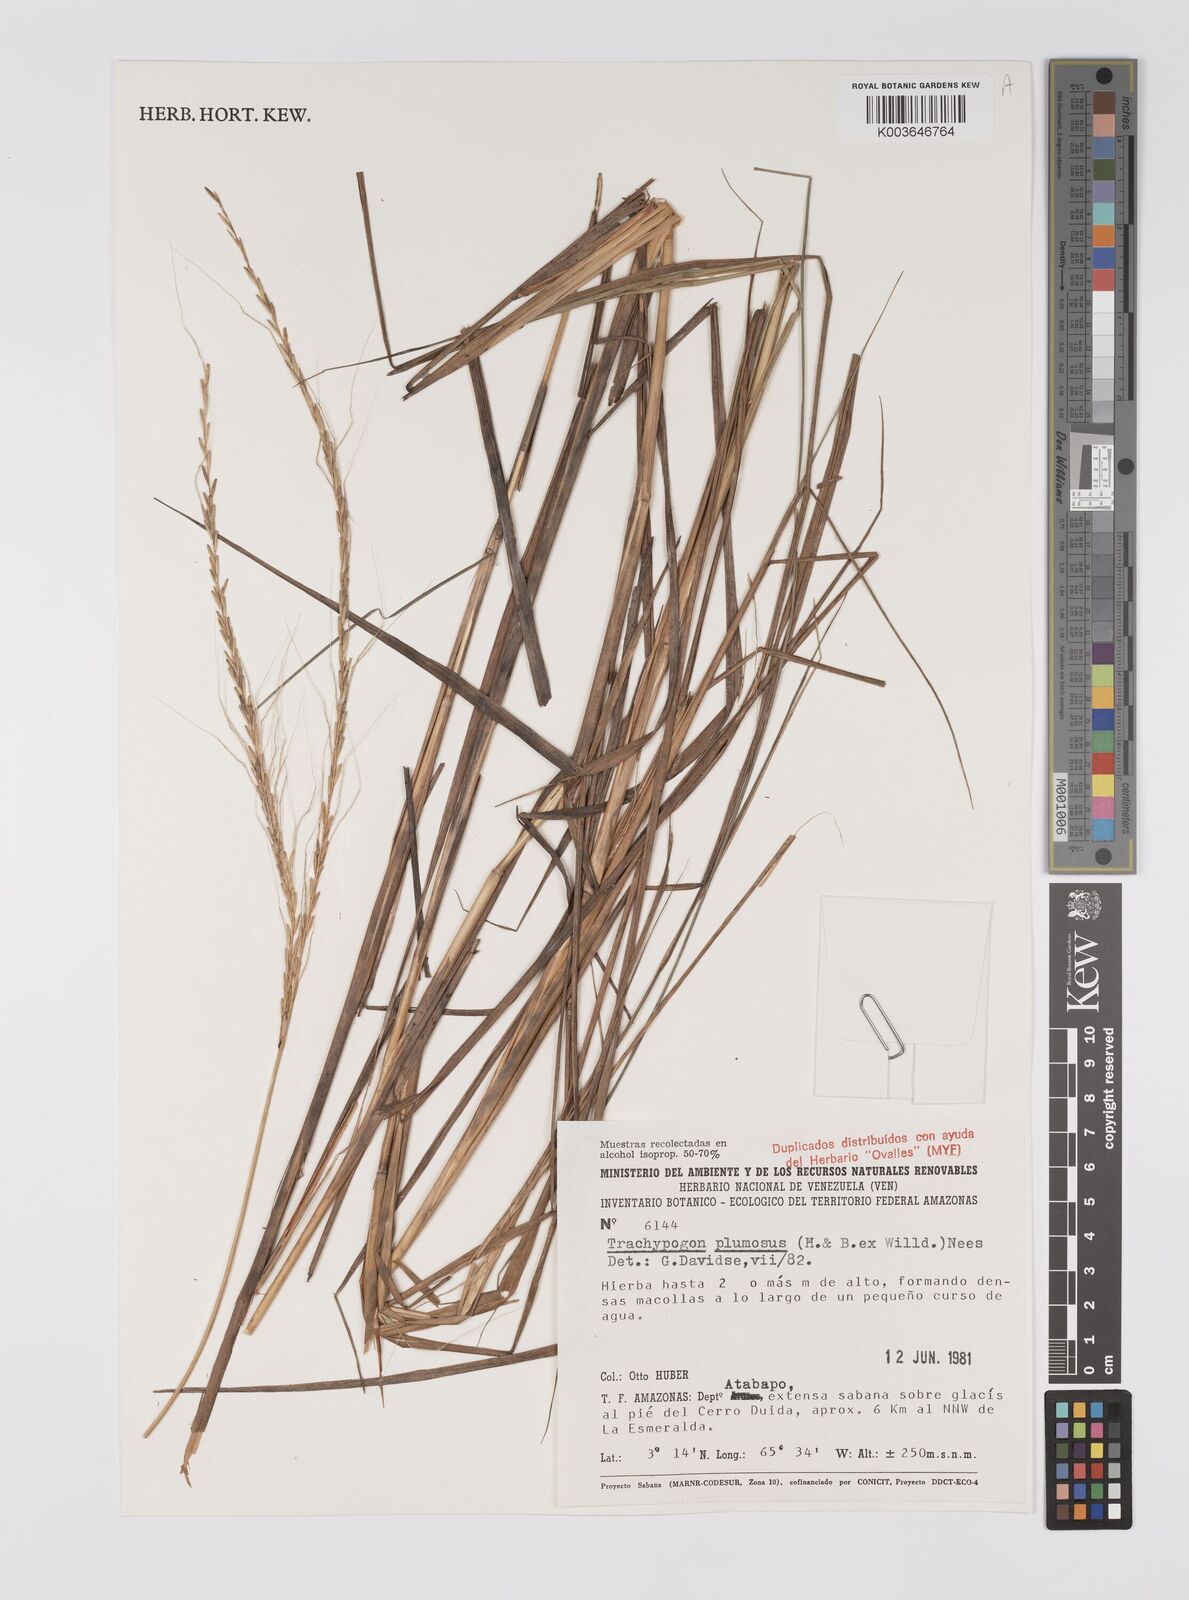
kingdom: Plantae
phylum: Tracheophyta
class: Liliopsida
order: Poales
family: Poaceae
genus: Trachypogon
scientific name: Trachypogon spicatus
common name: Crinkle-awn
